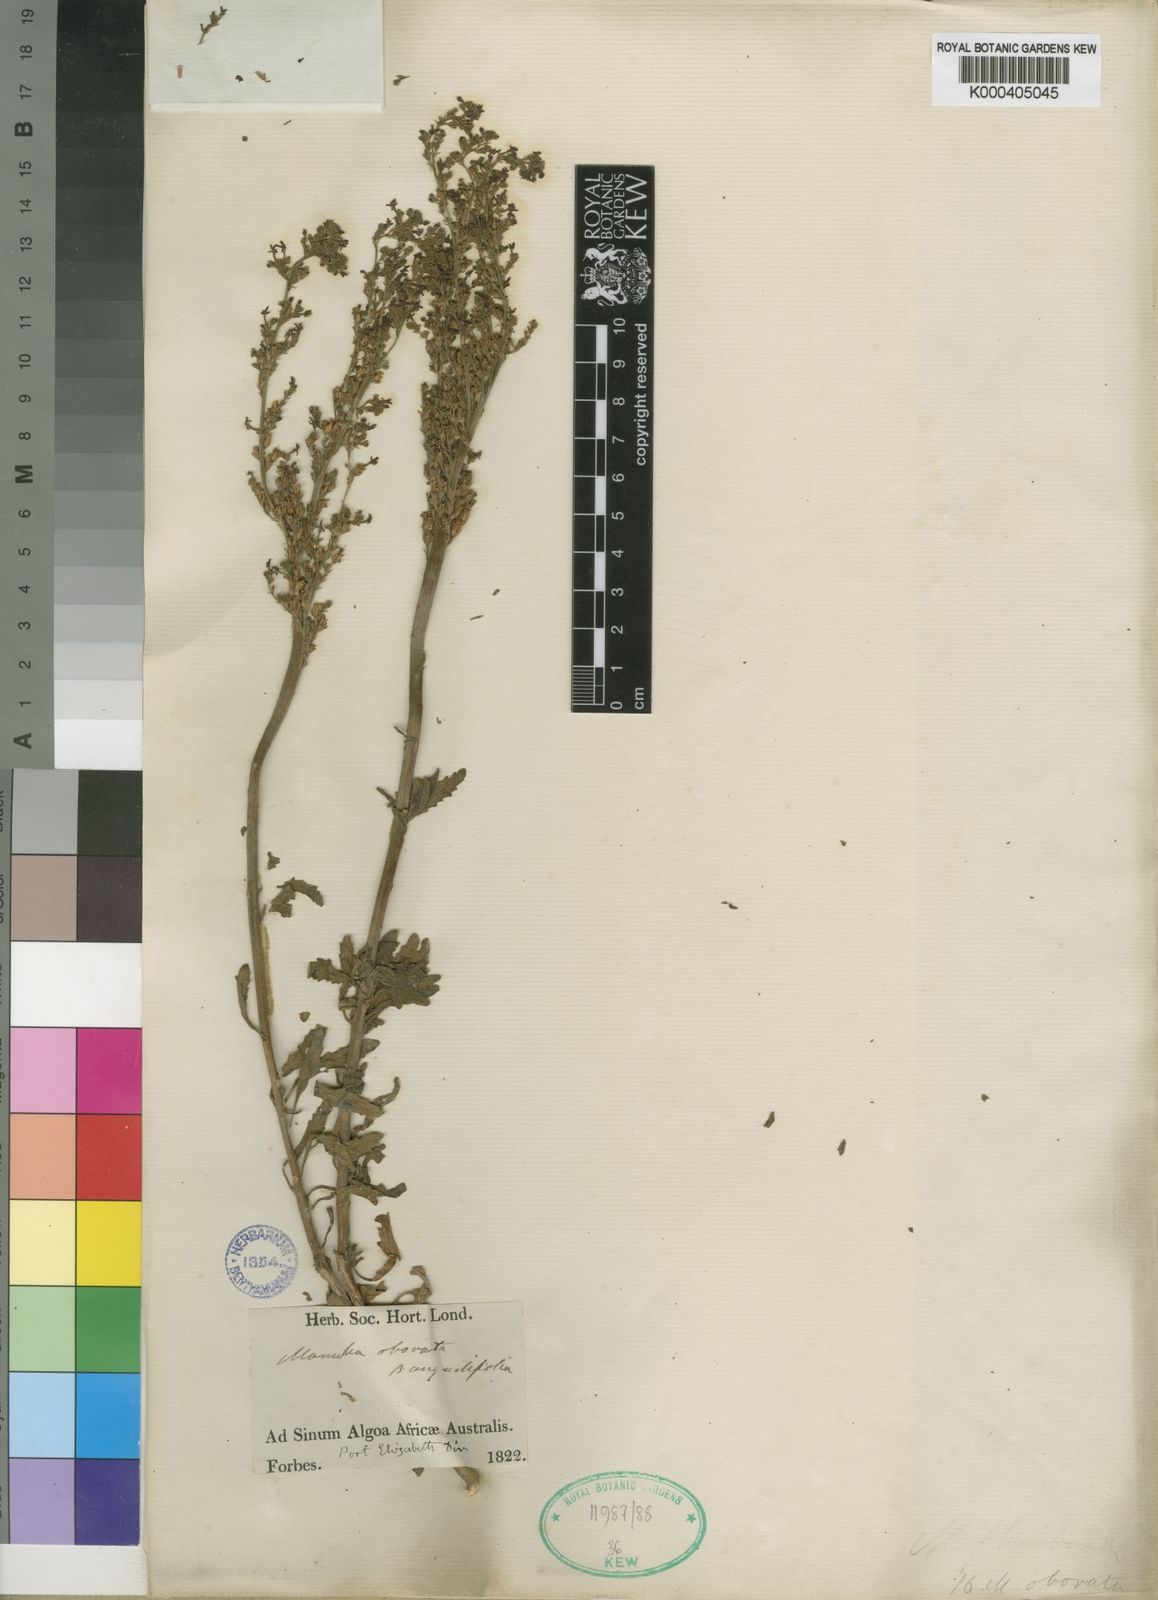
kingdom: Plantae
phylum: Tracheophyta
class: Magnoliopsida
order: Lamiales
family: Scrophulariaceae
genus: Manulea
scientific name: Manulea obovata
